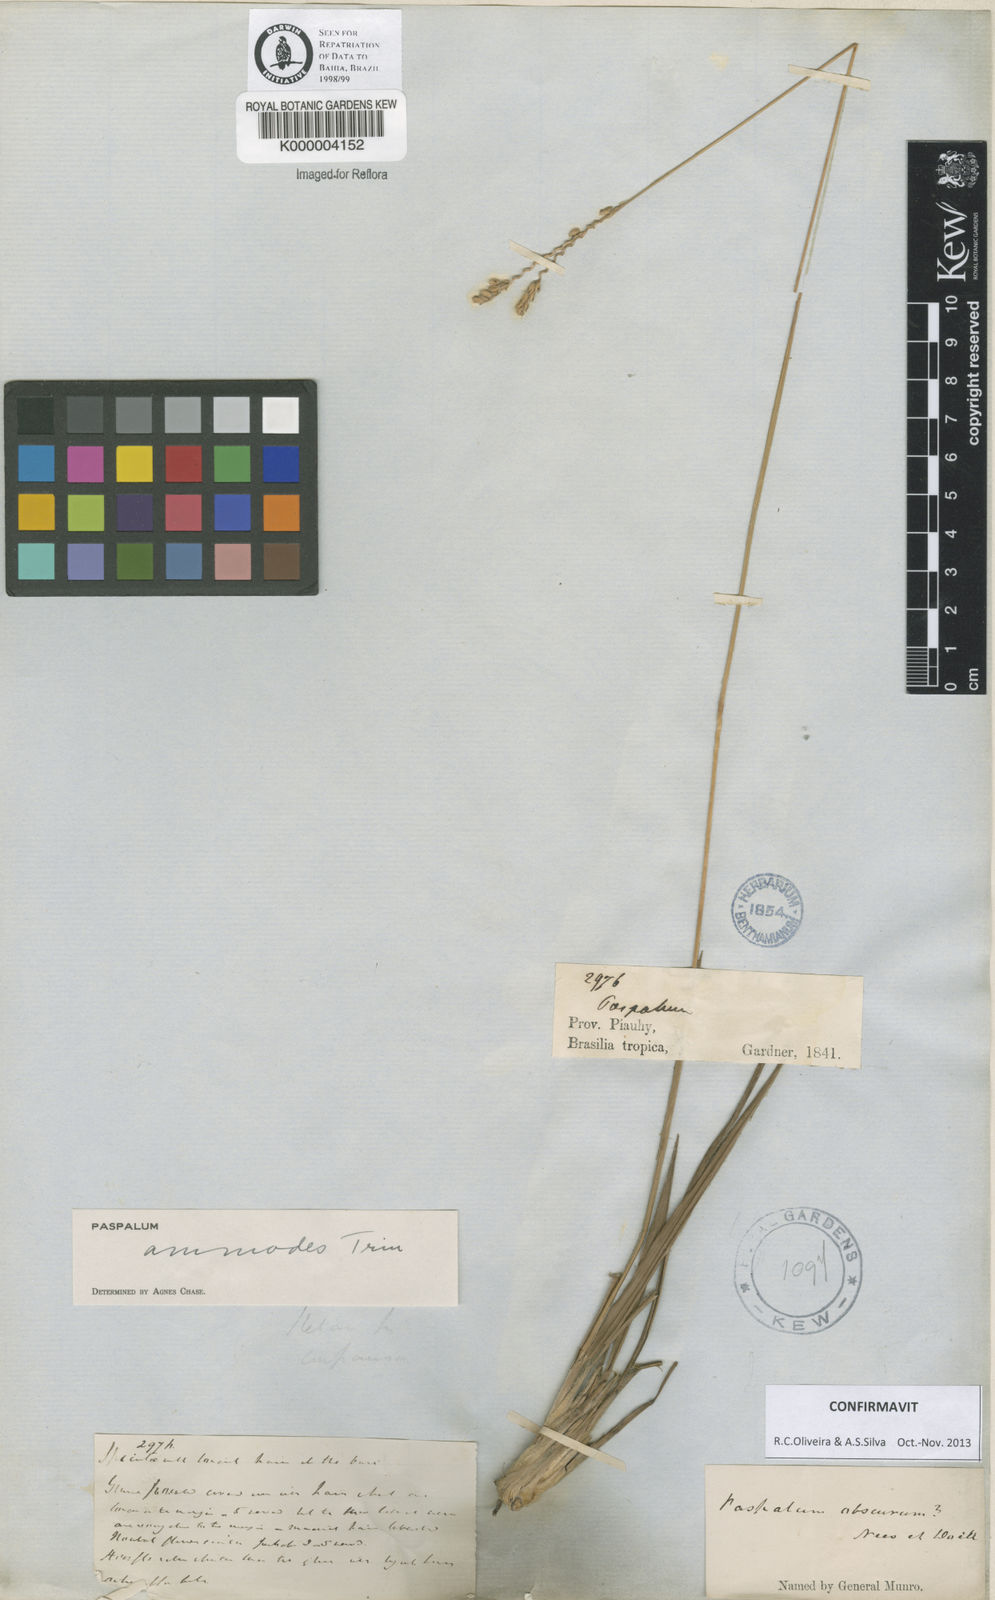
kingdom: Plantae
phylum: Tracheophyta
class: Liliopsida
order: Poales
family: Poaceae
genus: Paspalum
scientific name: Paspalum ammodes
